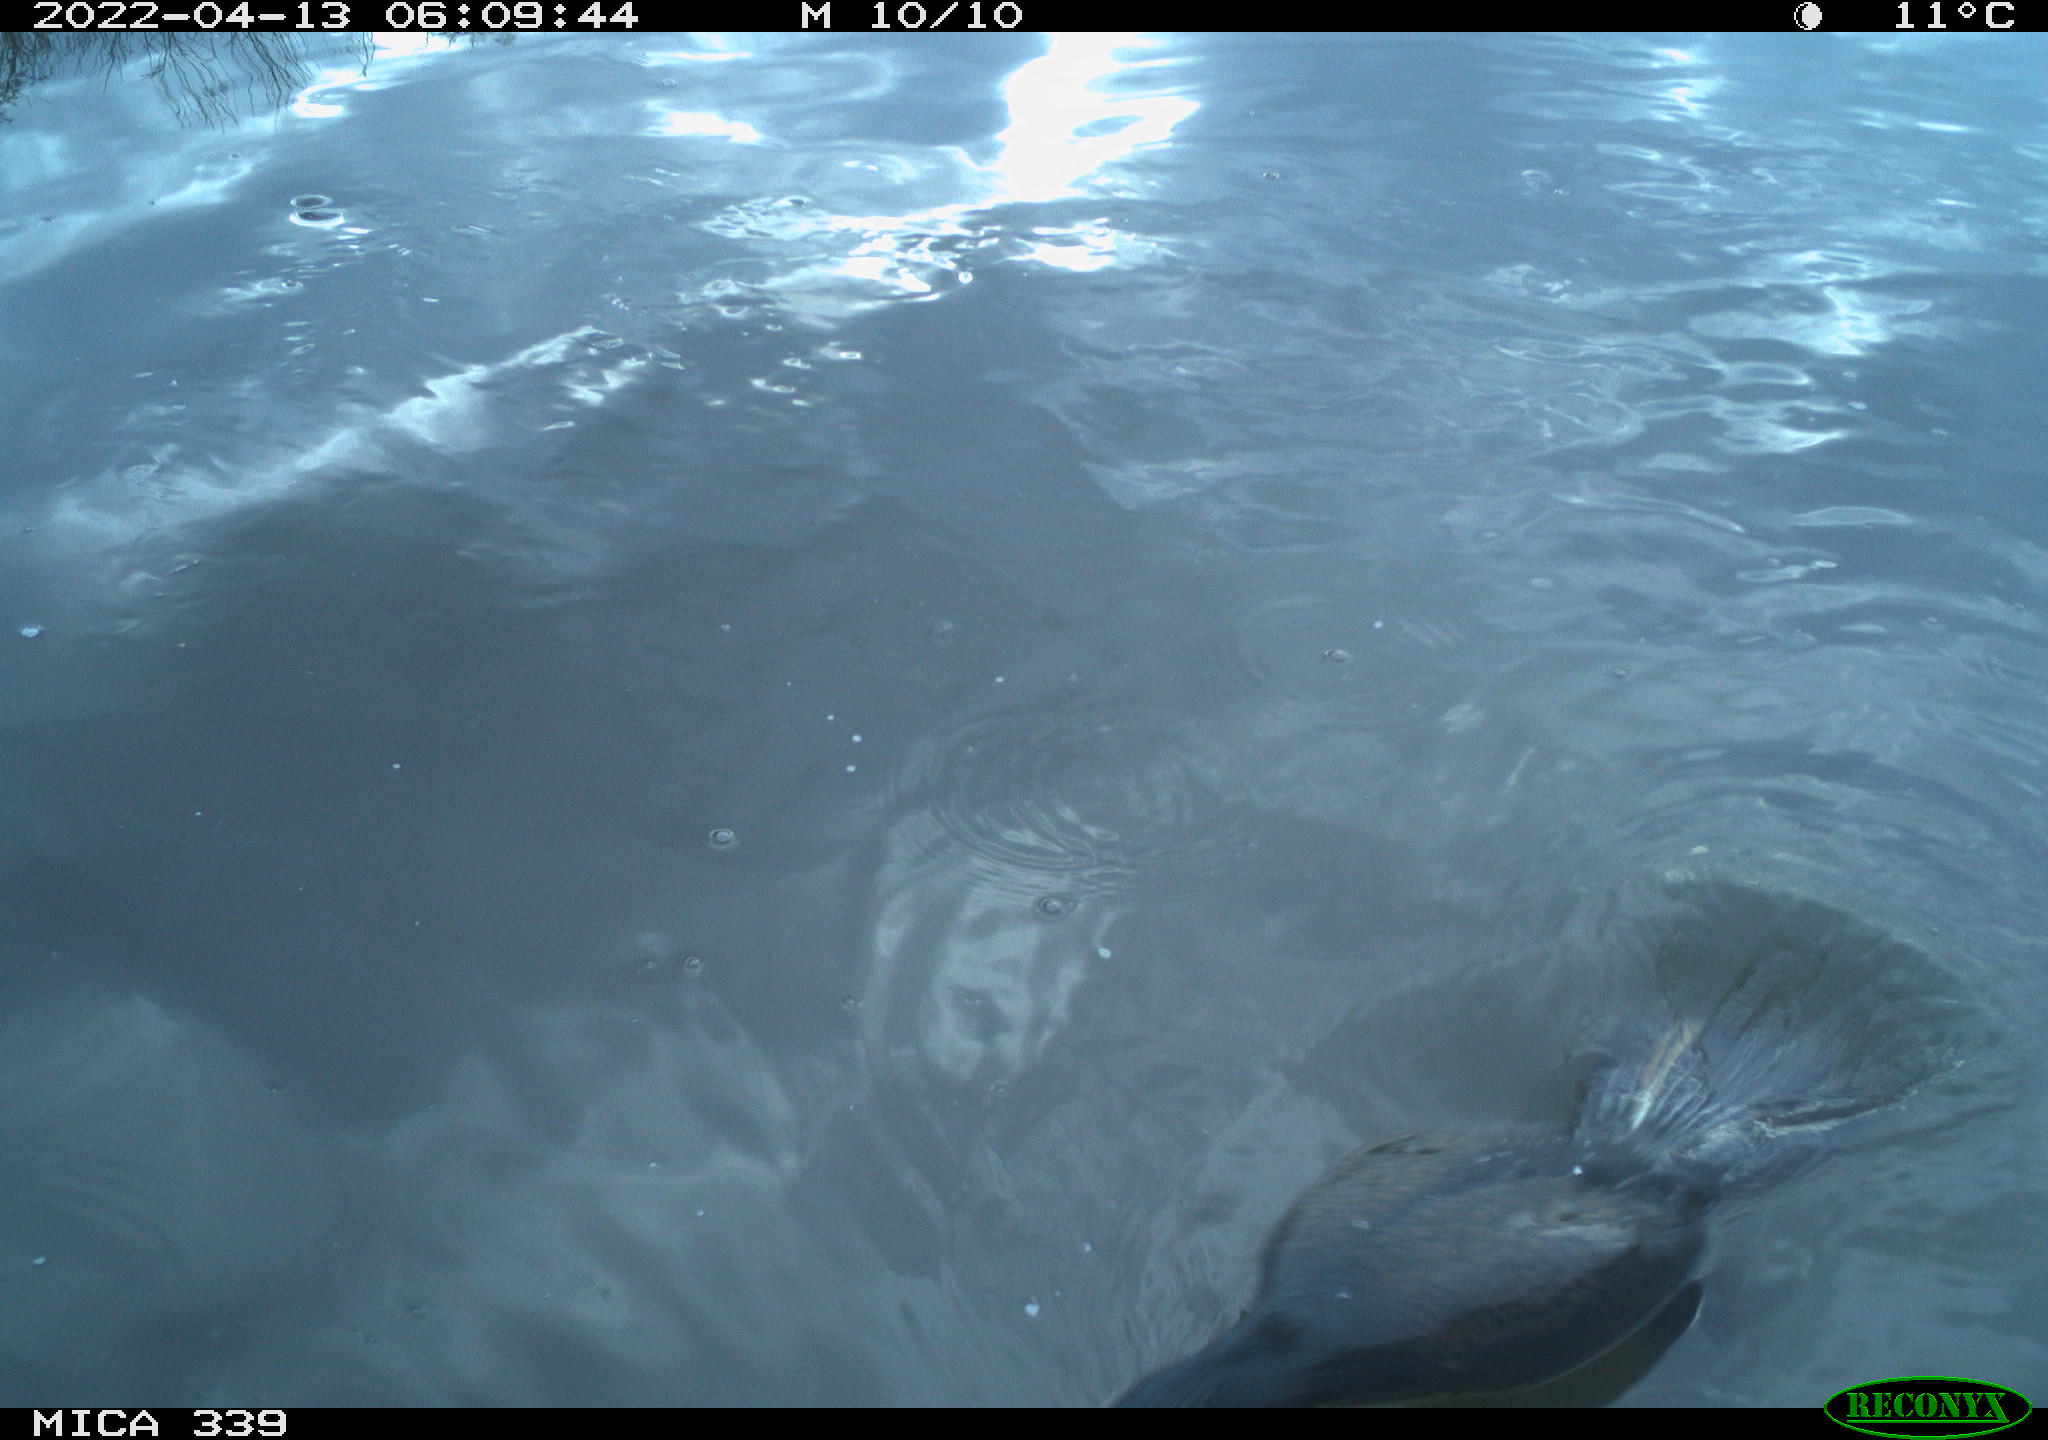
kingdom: Animalia
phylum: Chordata
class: Aves
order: Suliformes
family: Phalacrocoracidae
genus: Phalacrocorax
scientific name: Phalacrocorax carbo
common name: Great cormorant
